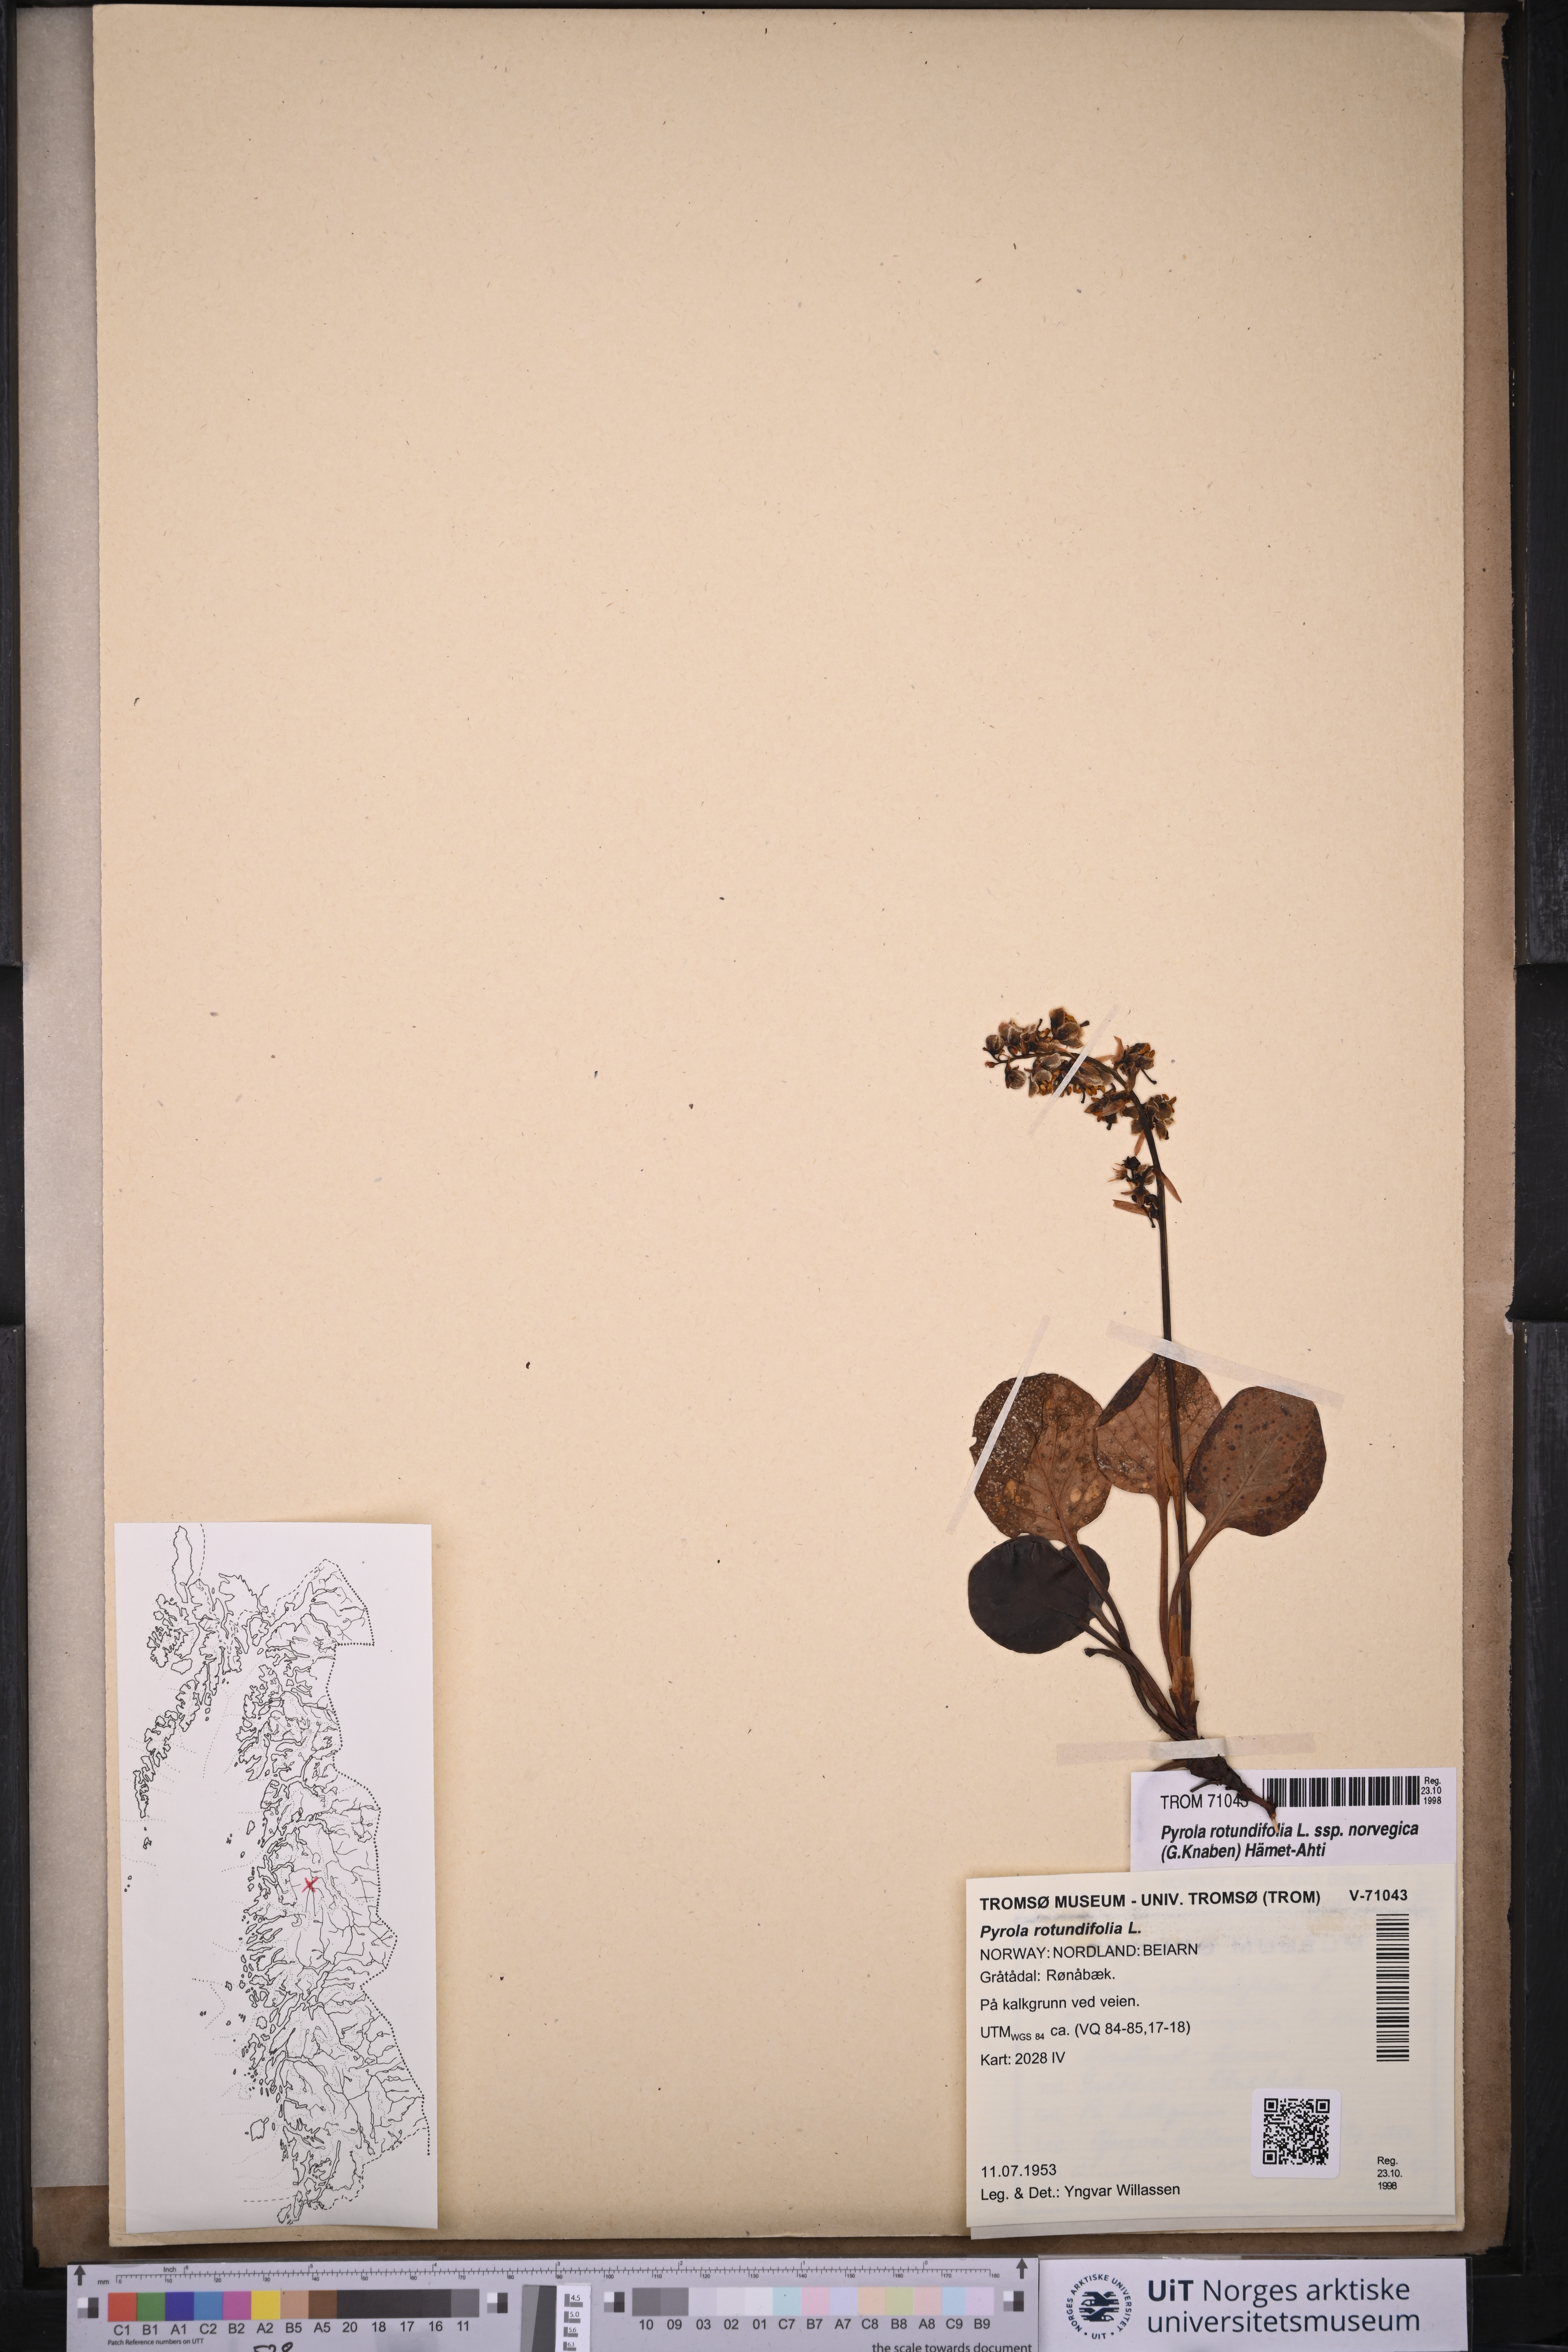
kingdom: Plantae
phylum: Tracheophyta
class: Magnoliopsida
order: Ericales
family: Ericaceae
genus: Pyrola
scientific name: Pyrola rotundifolia
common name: Round-leaved wintergreen
